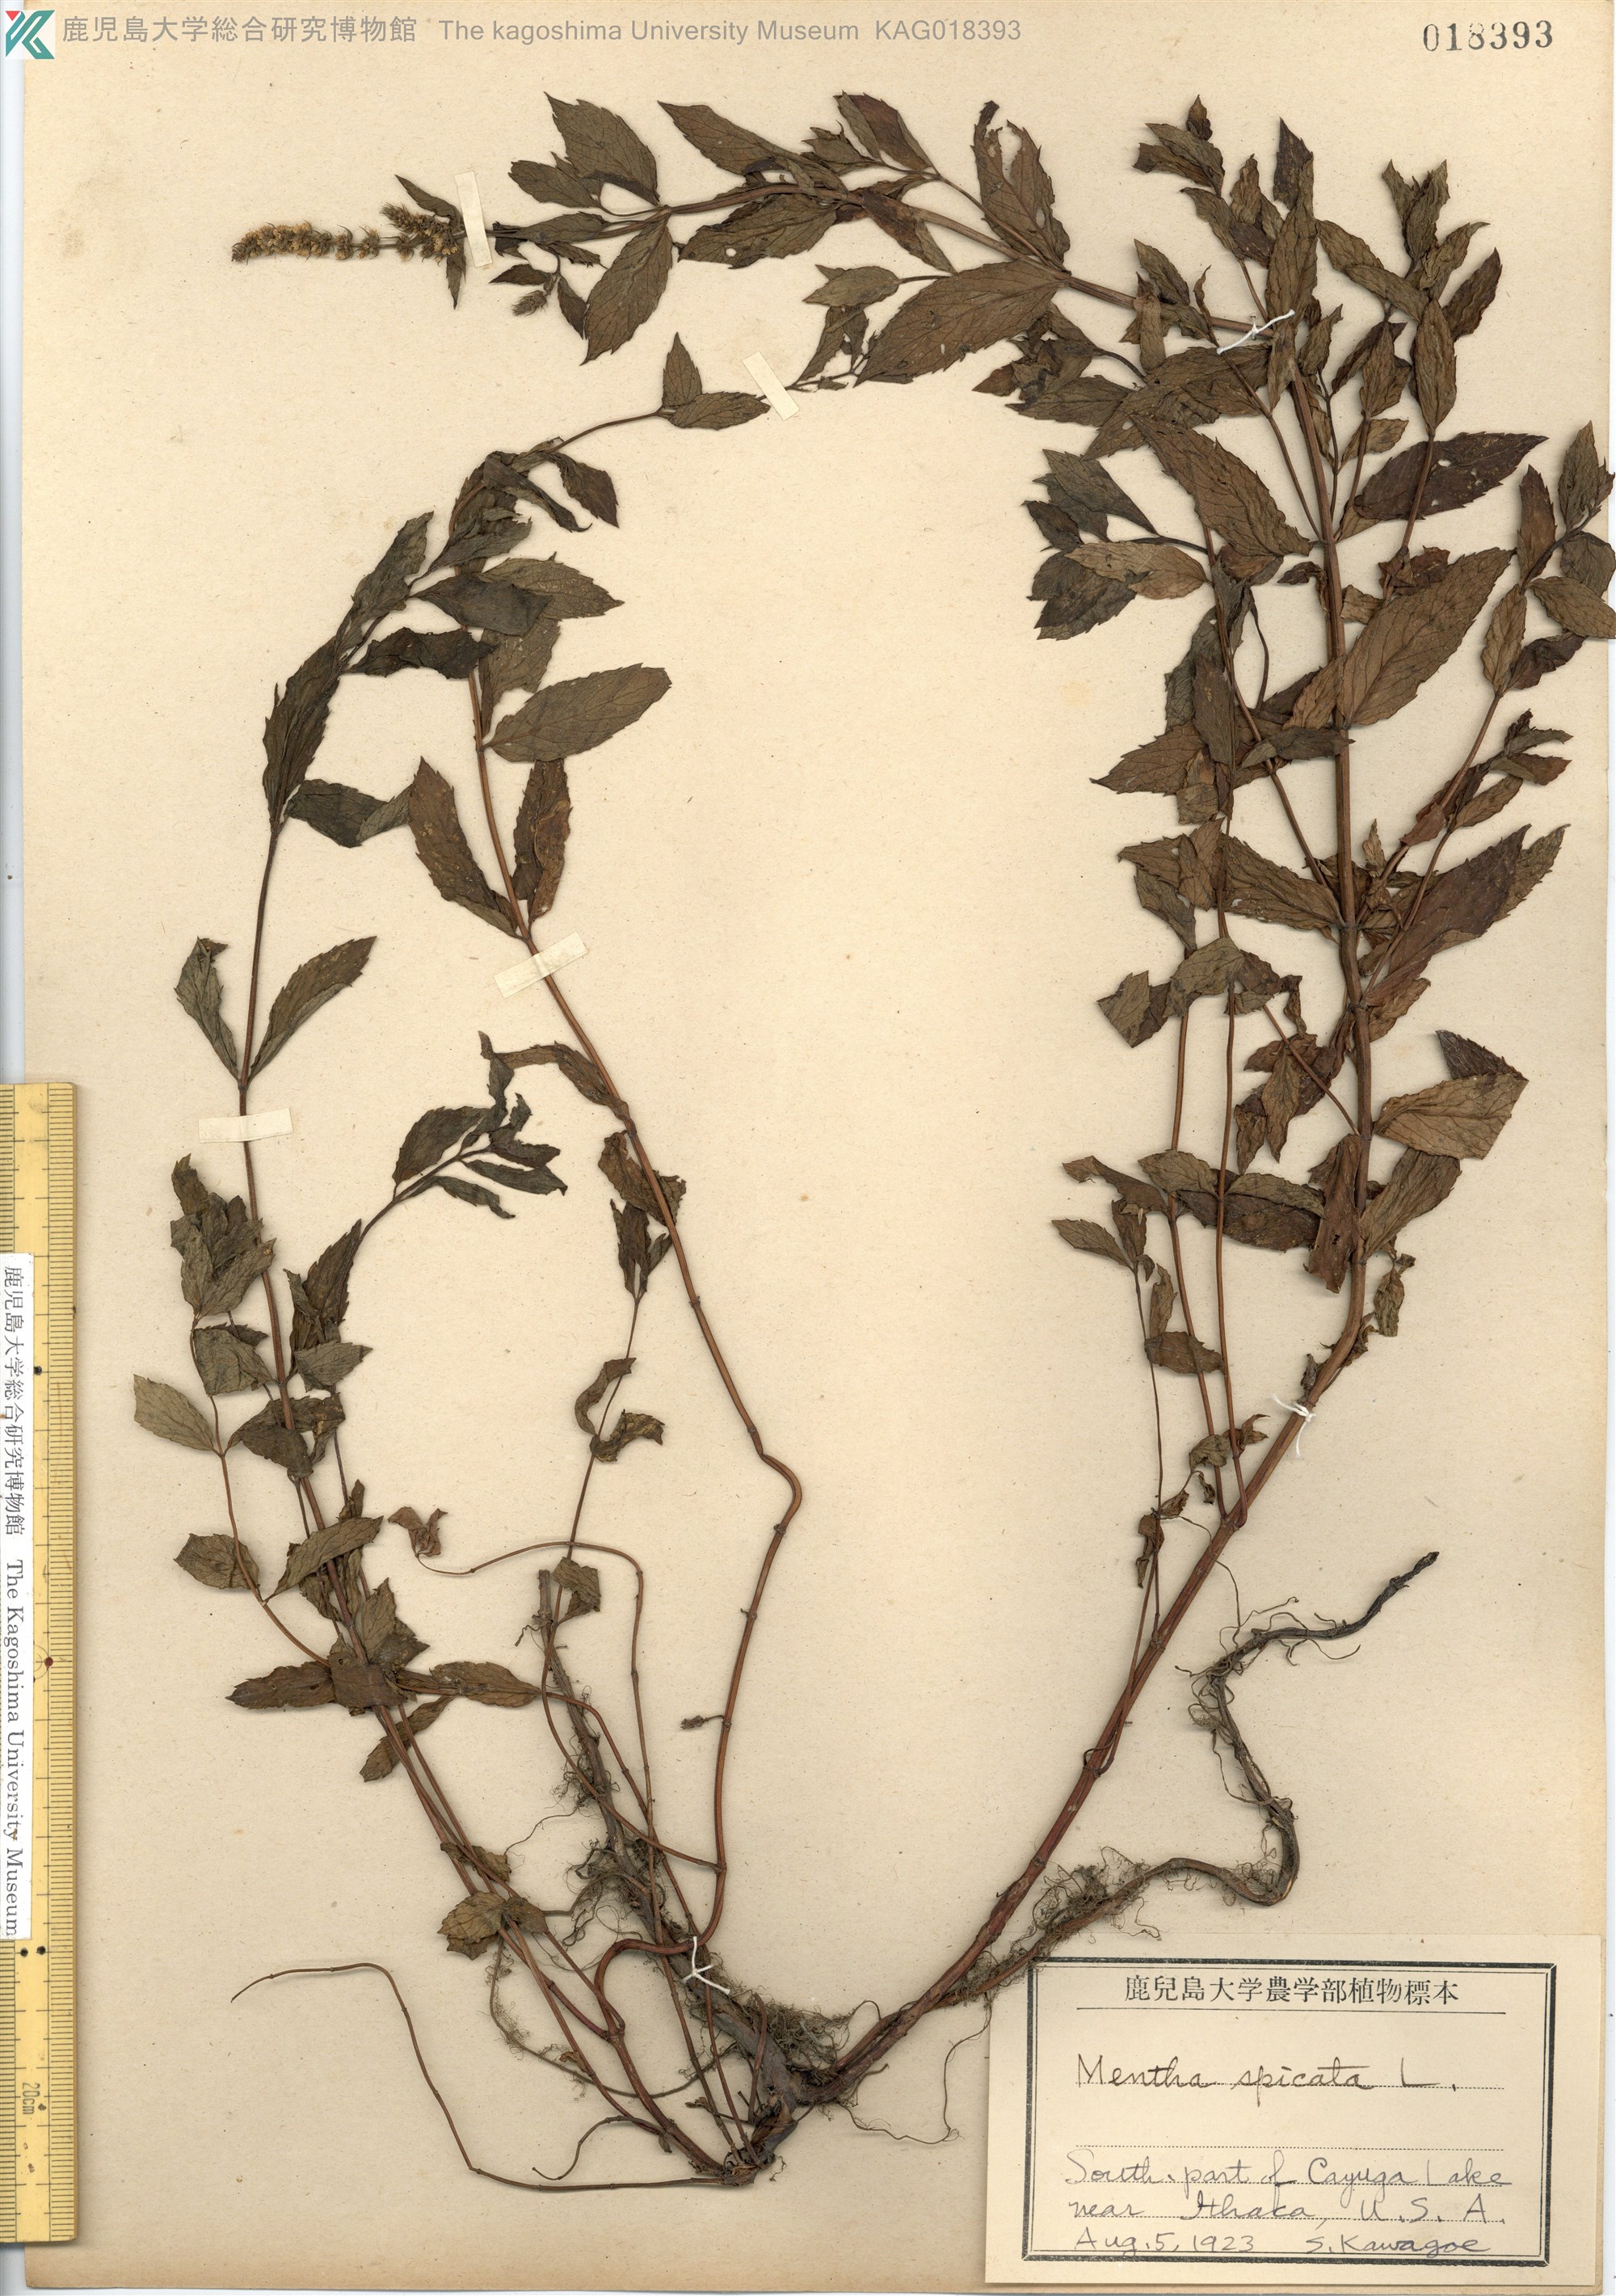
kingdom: Plantae
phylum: Tracheophyta
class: Magnoliopsida
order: Lamiales
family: Lamiaceae
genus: Mentha
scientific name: Mentha spicata
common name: Spearmint
